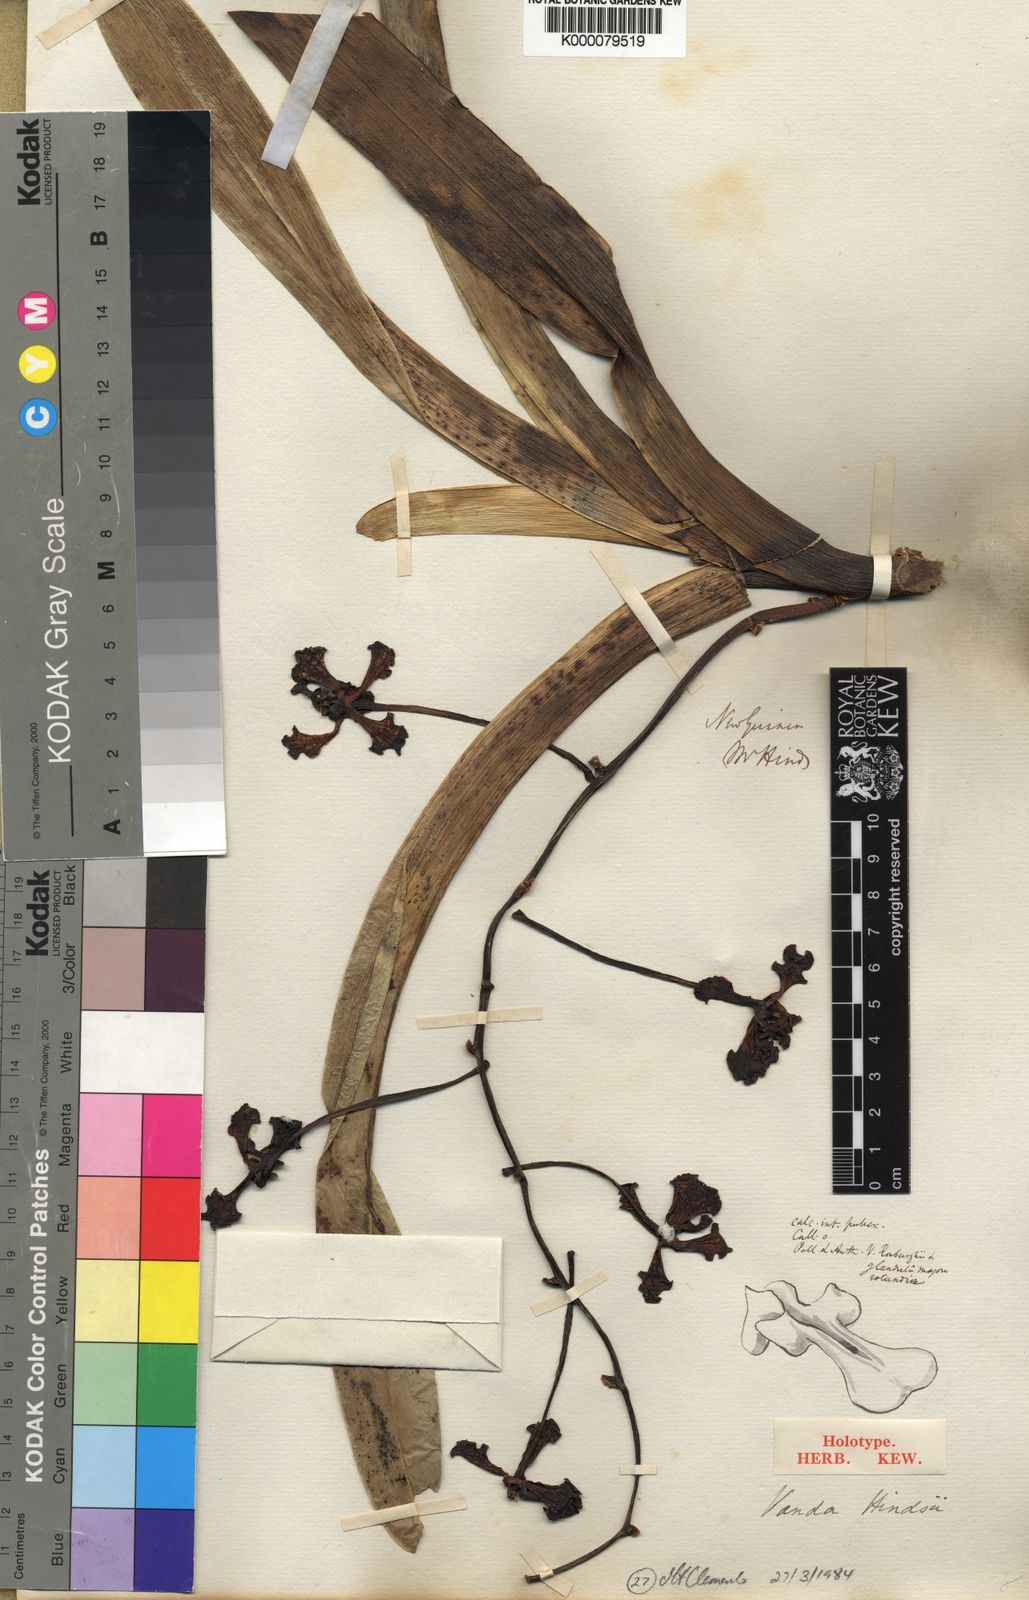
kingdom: Plantae
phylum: Tracheophyta
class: Liliopsida
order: Asparagales
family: Orchidaceae
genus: Vanda
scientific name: Vanda hindsii
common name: Cape york wanda
